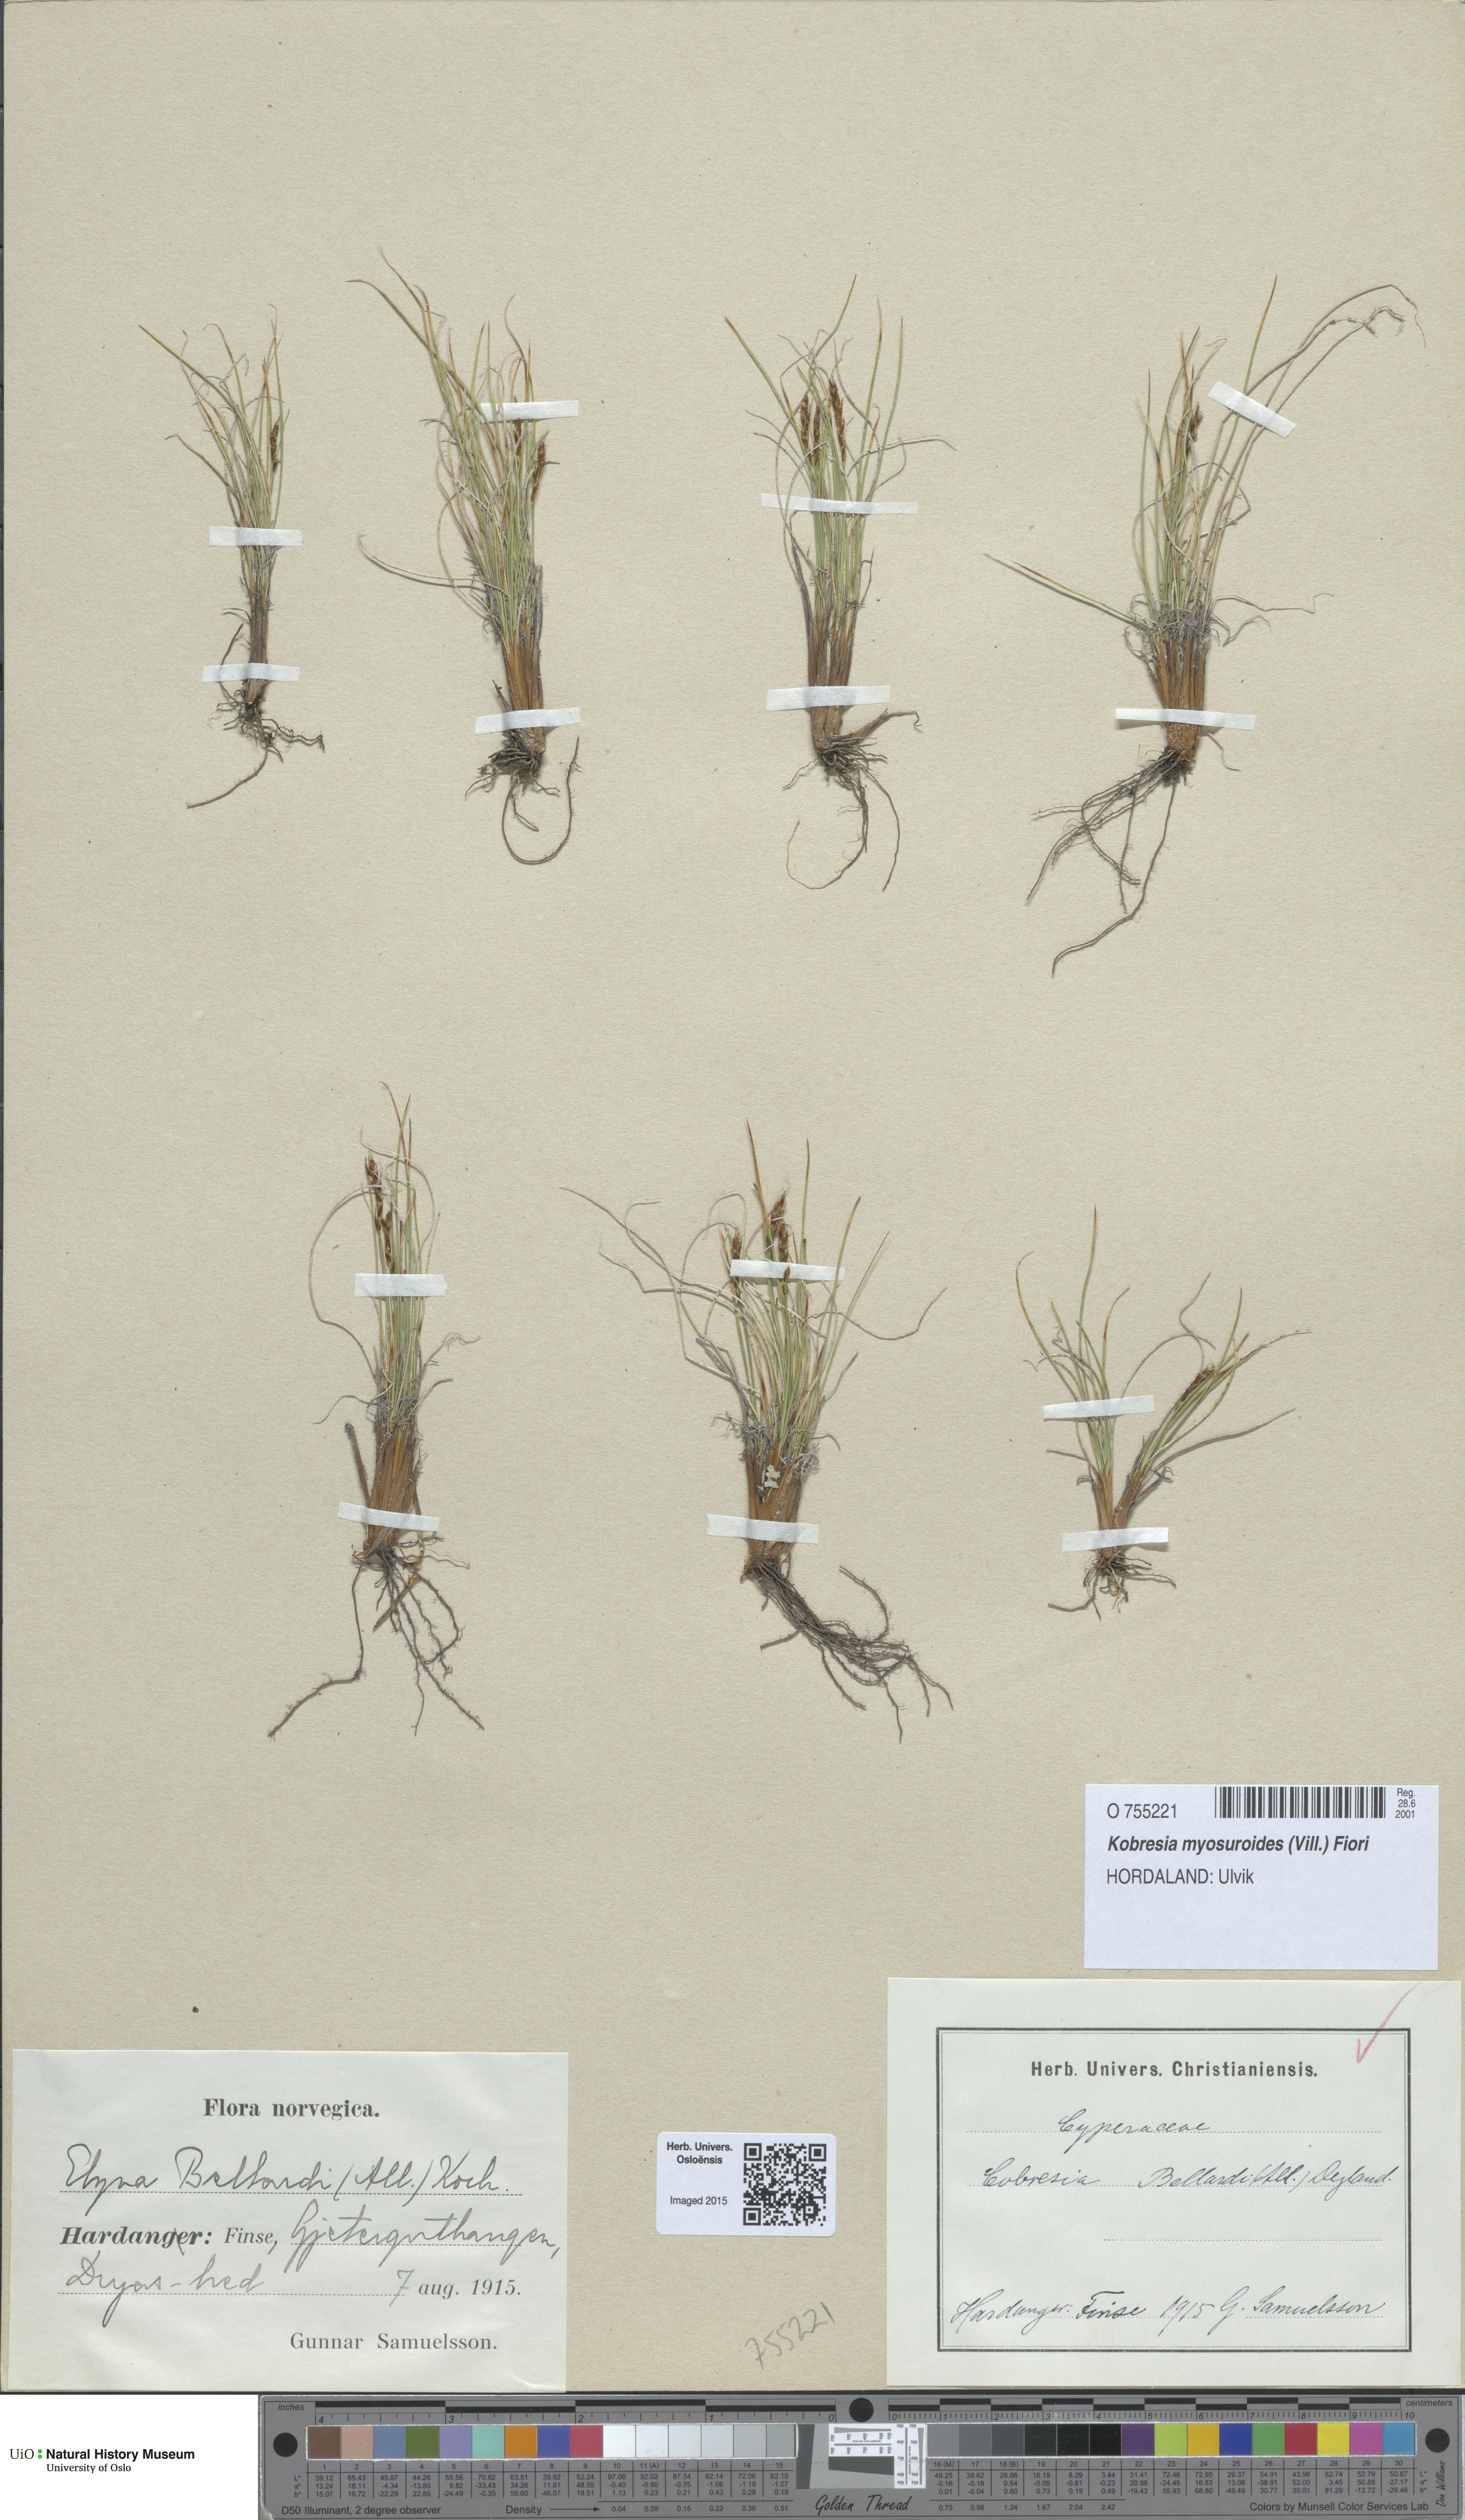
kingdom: Plantae
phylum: Tracheophyta
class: Liliopsida
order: Poales
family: Cyperaceae
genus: Carex
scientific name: Carex myosuroides
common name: Bellard's bog sedge
